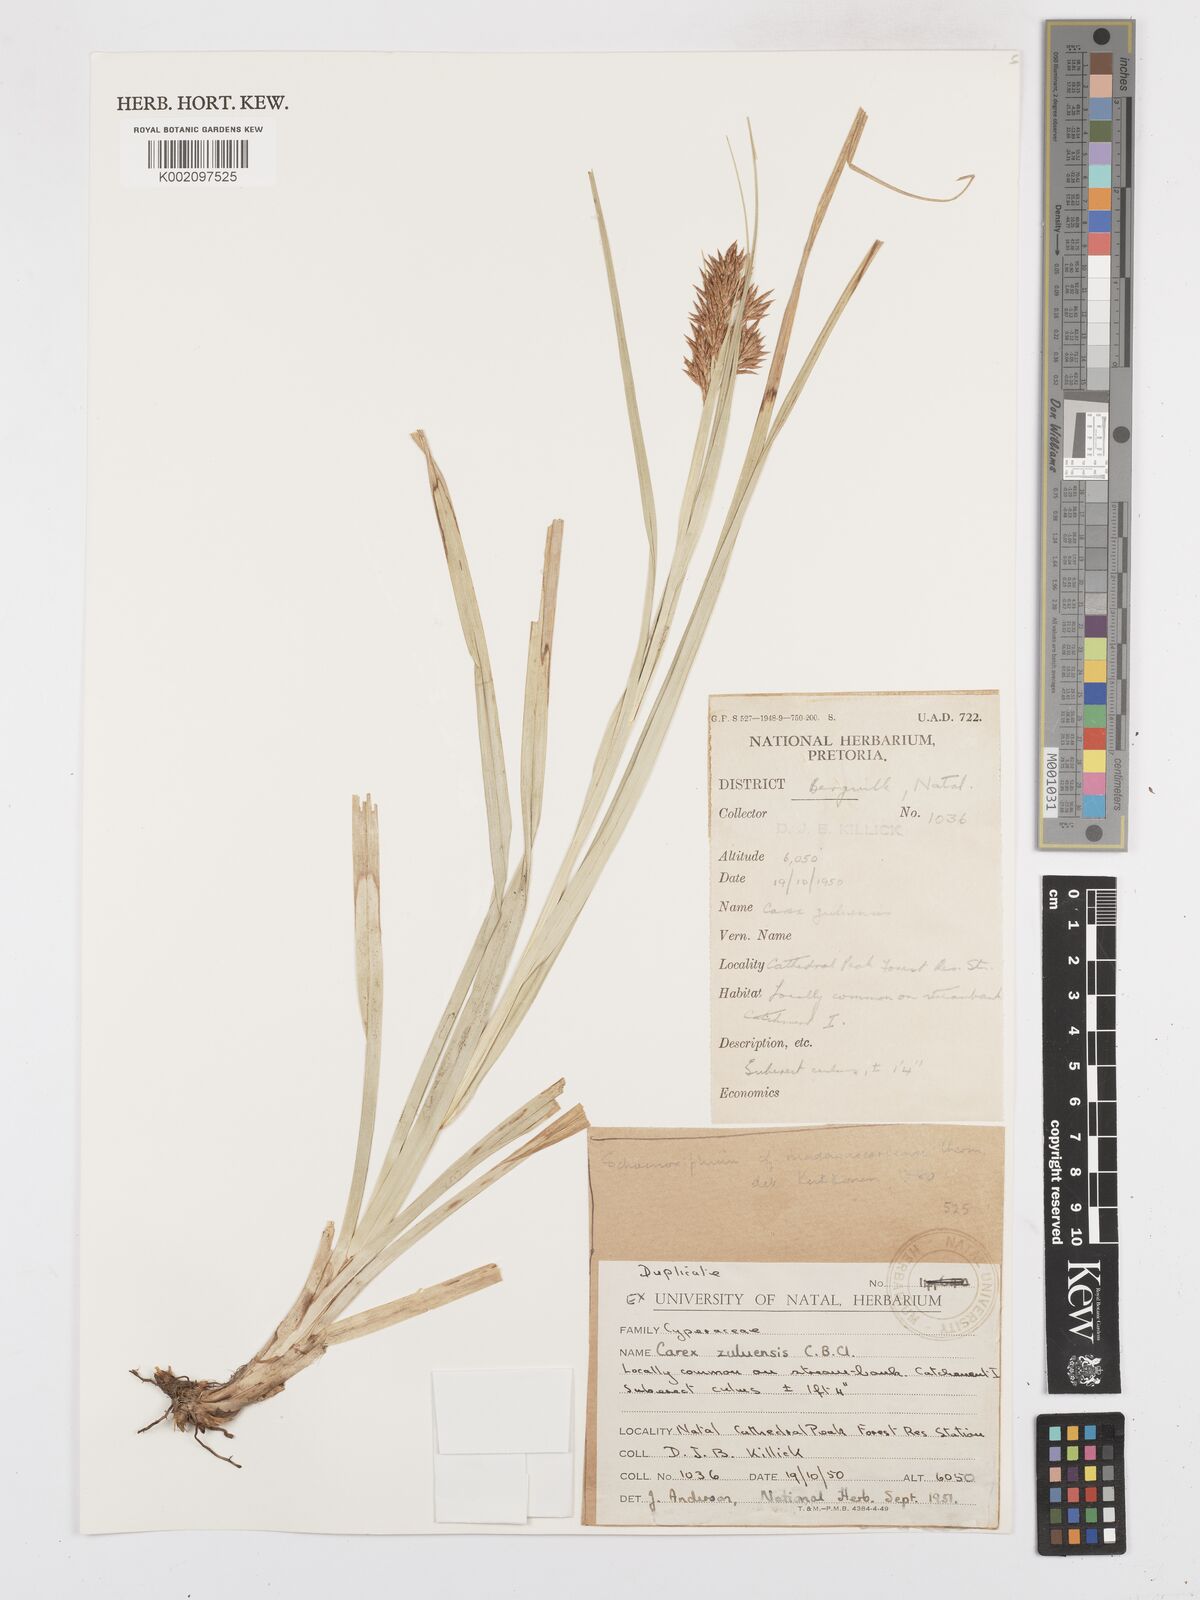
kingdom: Plantae
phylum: Tracheophyta
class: Liliopsida
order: Poales
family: Cyperaceae
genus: Carex
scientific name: Carex steudneri
